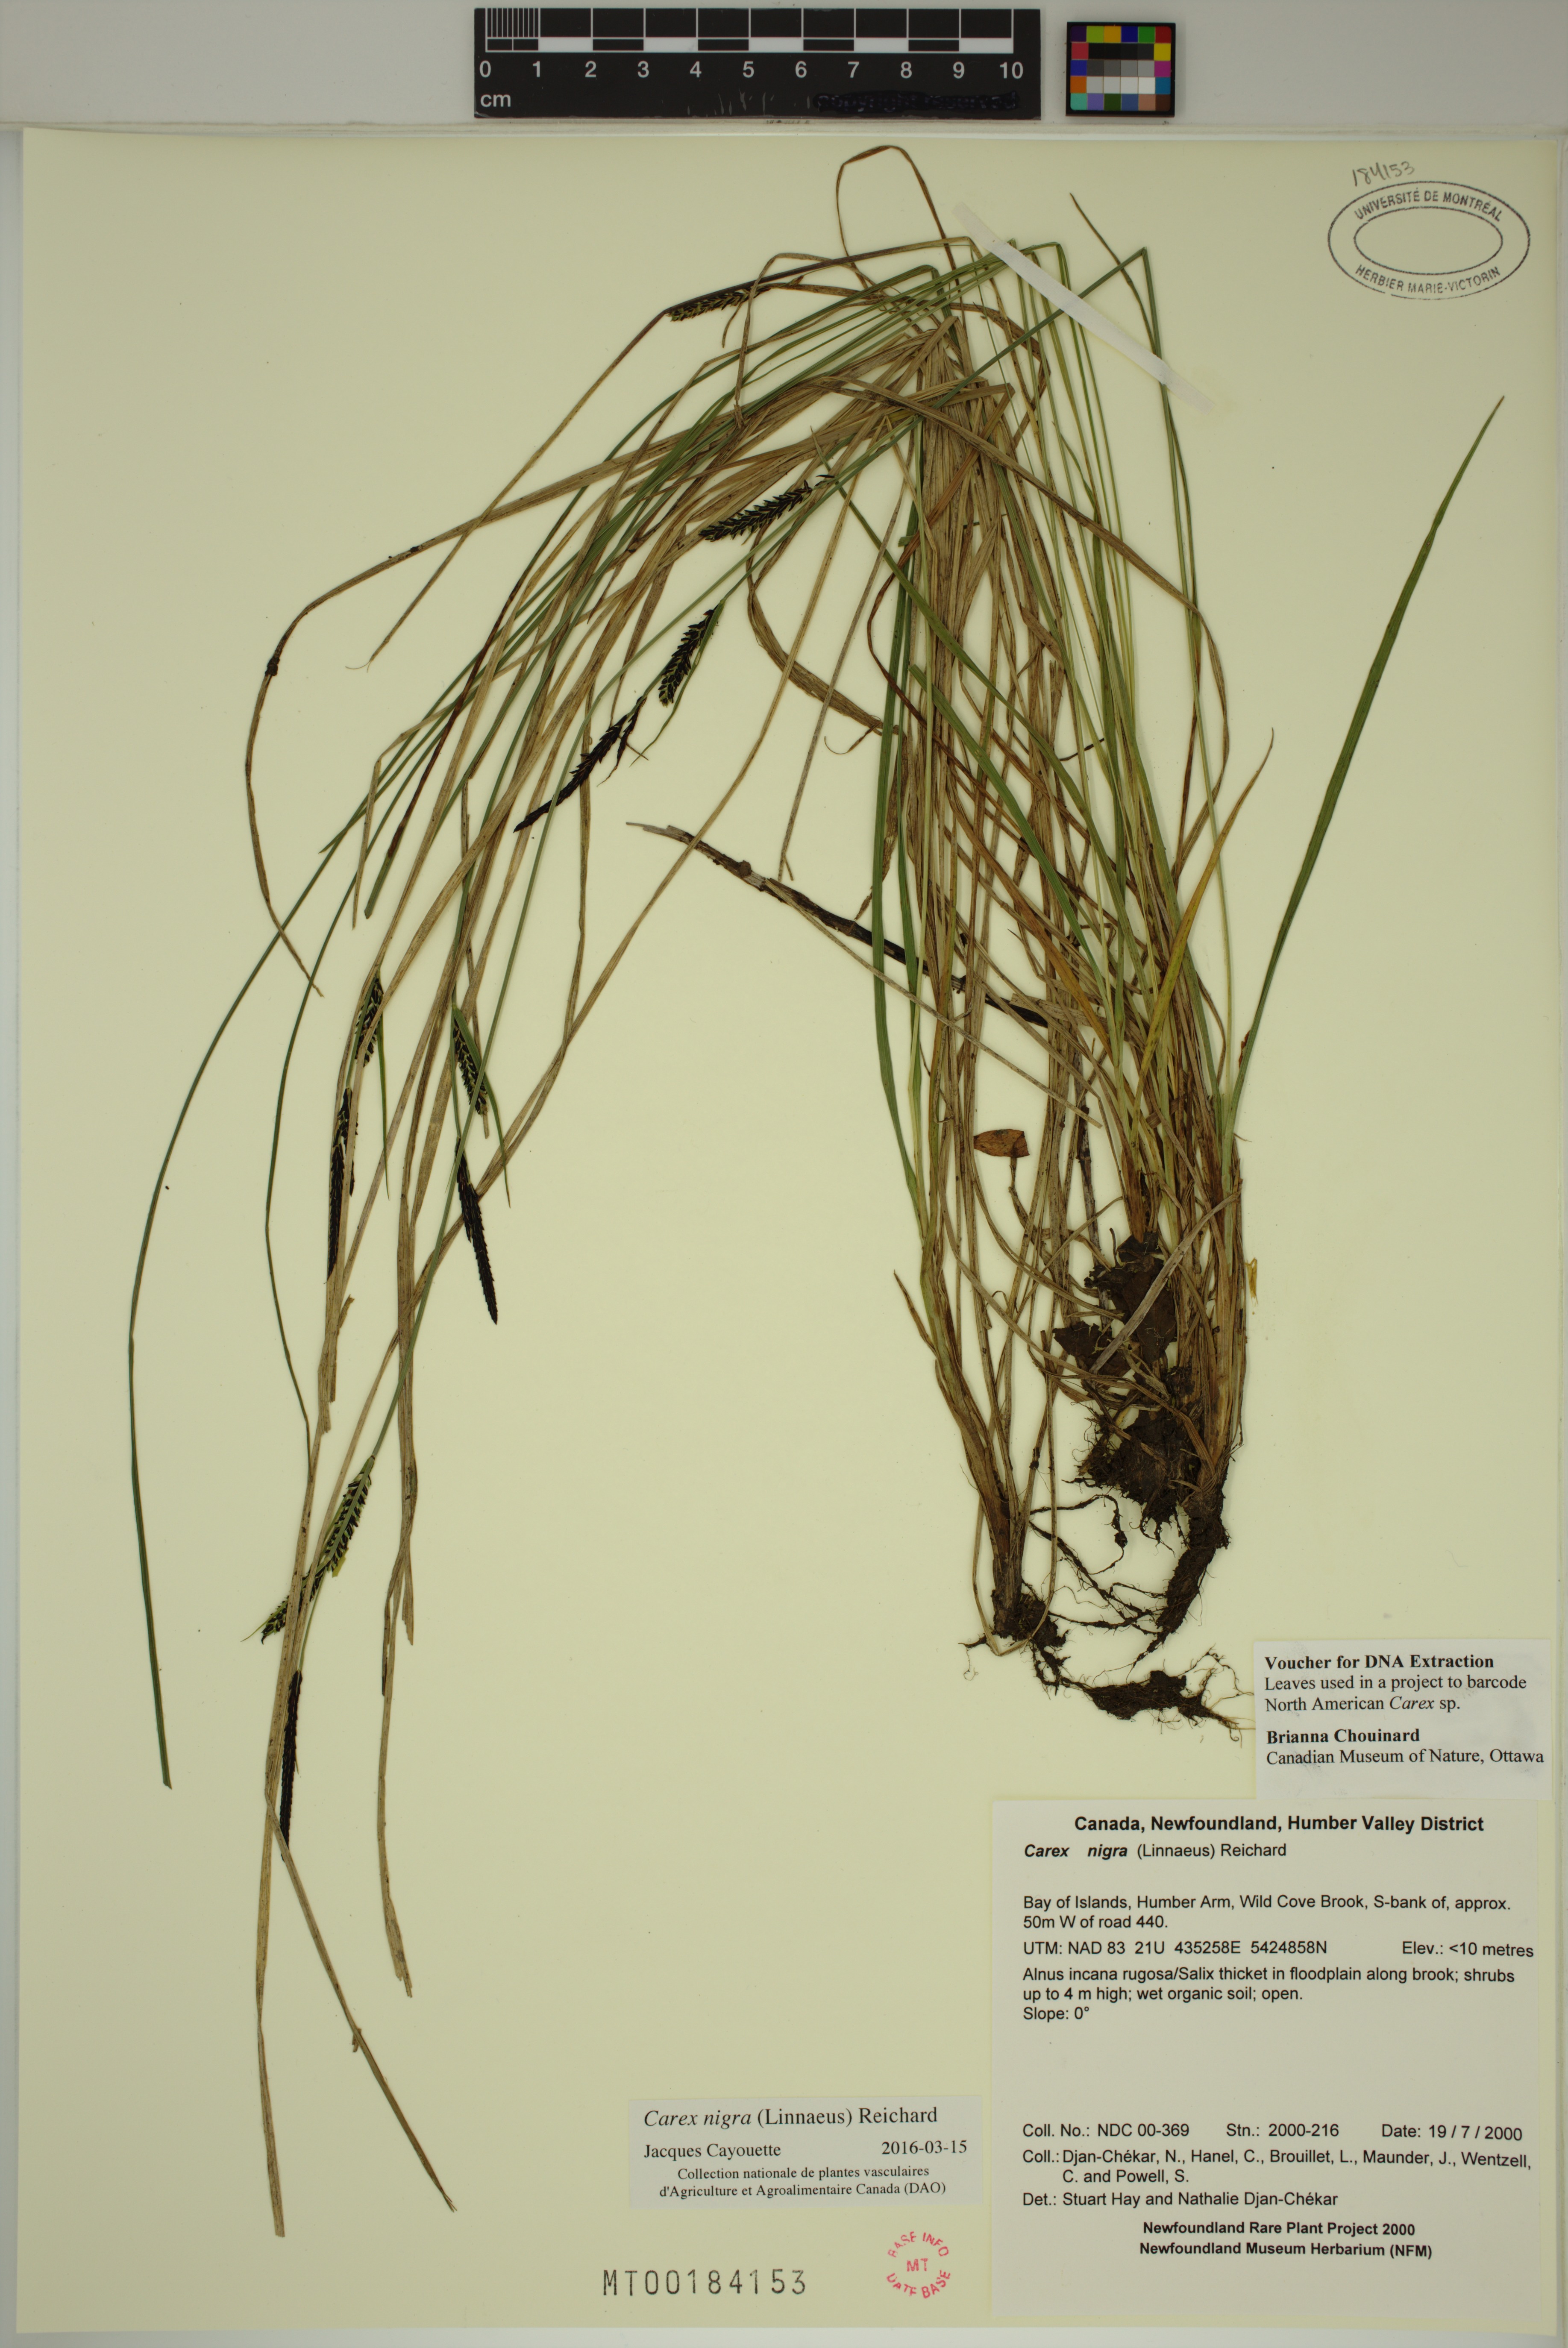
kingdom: Plantae
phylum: Tracheophyta
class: Liliopsida
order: Poales
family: Cyperaceae
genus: Carex
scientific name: Carex nigra
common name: Common sedge
